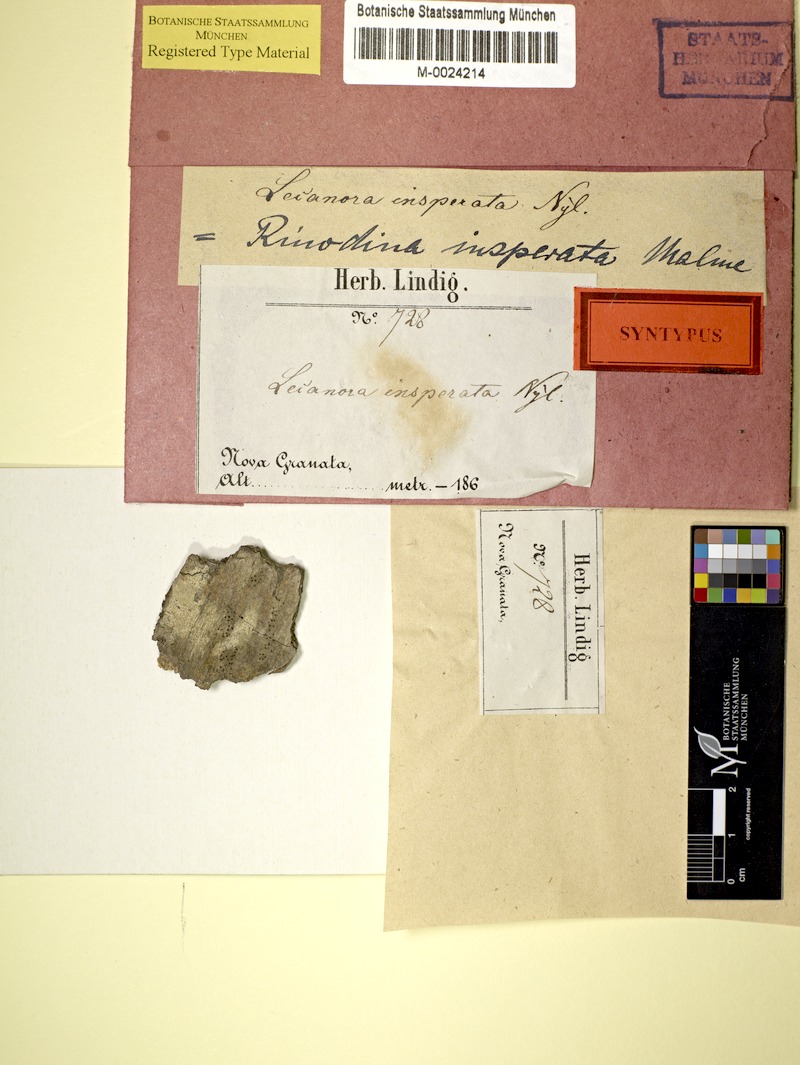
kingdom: Fungi
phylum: Ascomycota
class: Lecanoromycetes
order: Caliciales
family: Caliciaceae
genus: Orcularia
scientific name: Orcularia insperata
